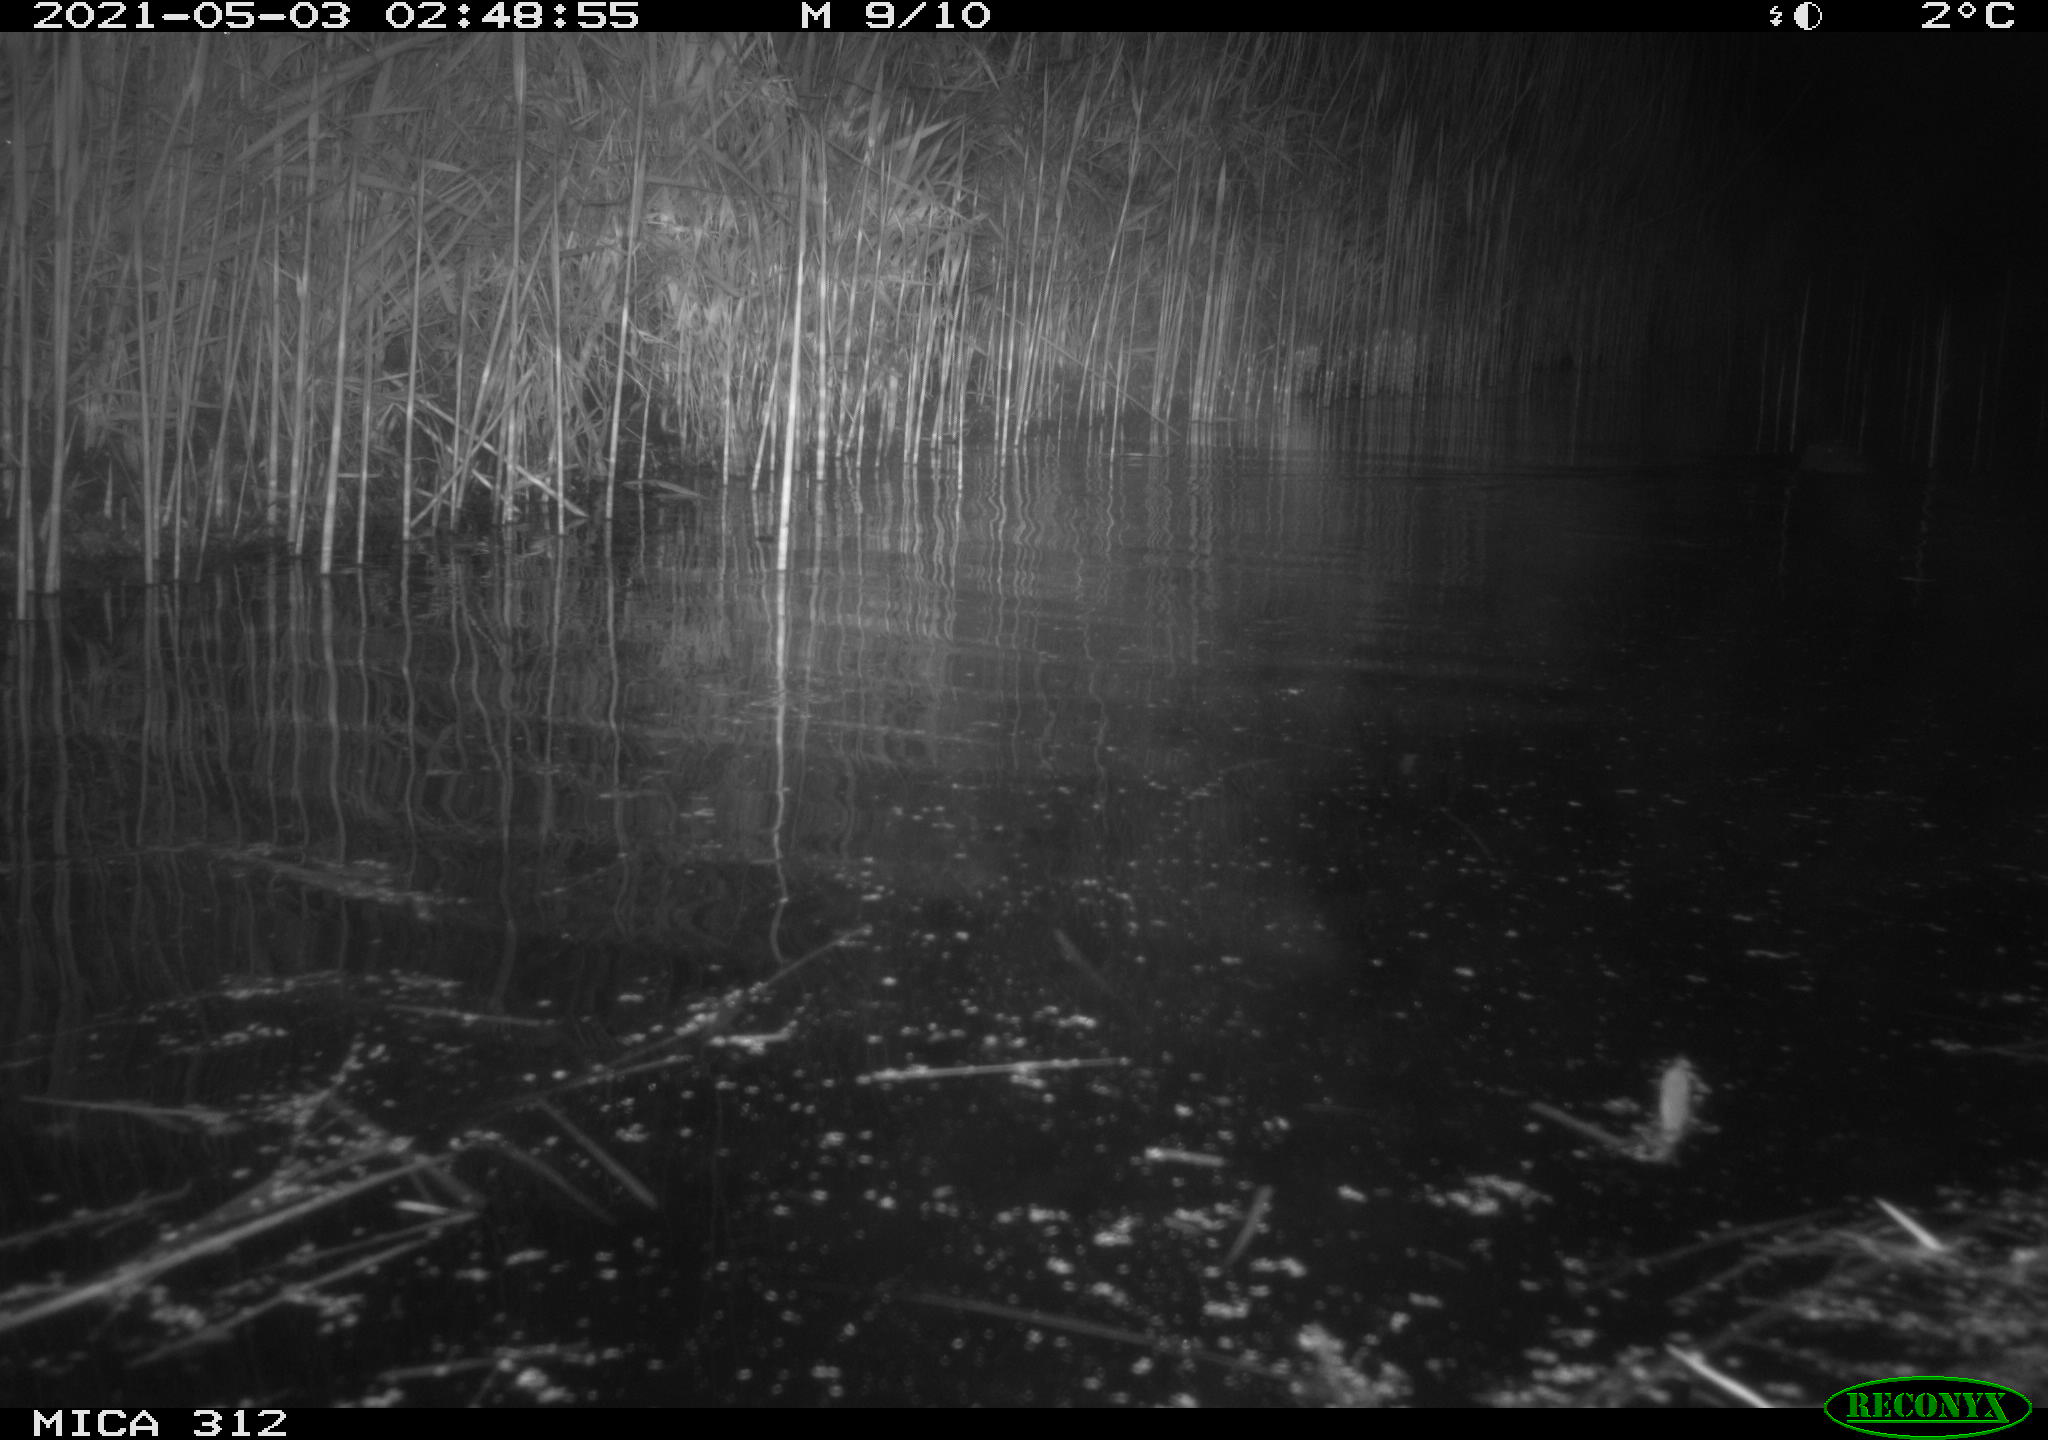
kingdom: Animalia
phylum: Chordata
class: Mammalia
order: Rodentia
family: Cricetidae
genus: Ondatra
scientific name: Ondatra zibethicus
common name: Muskrat
